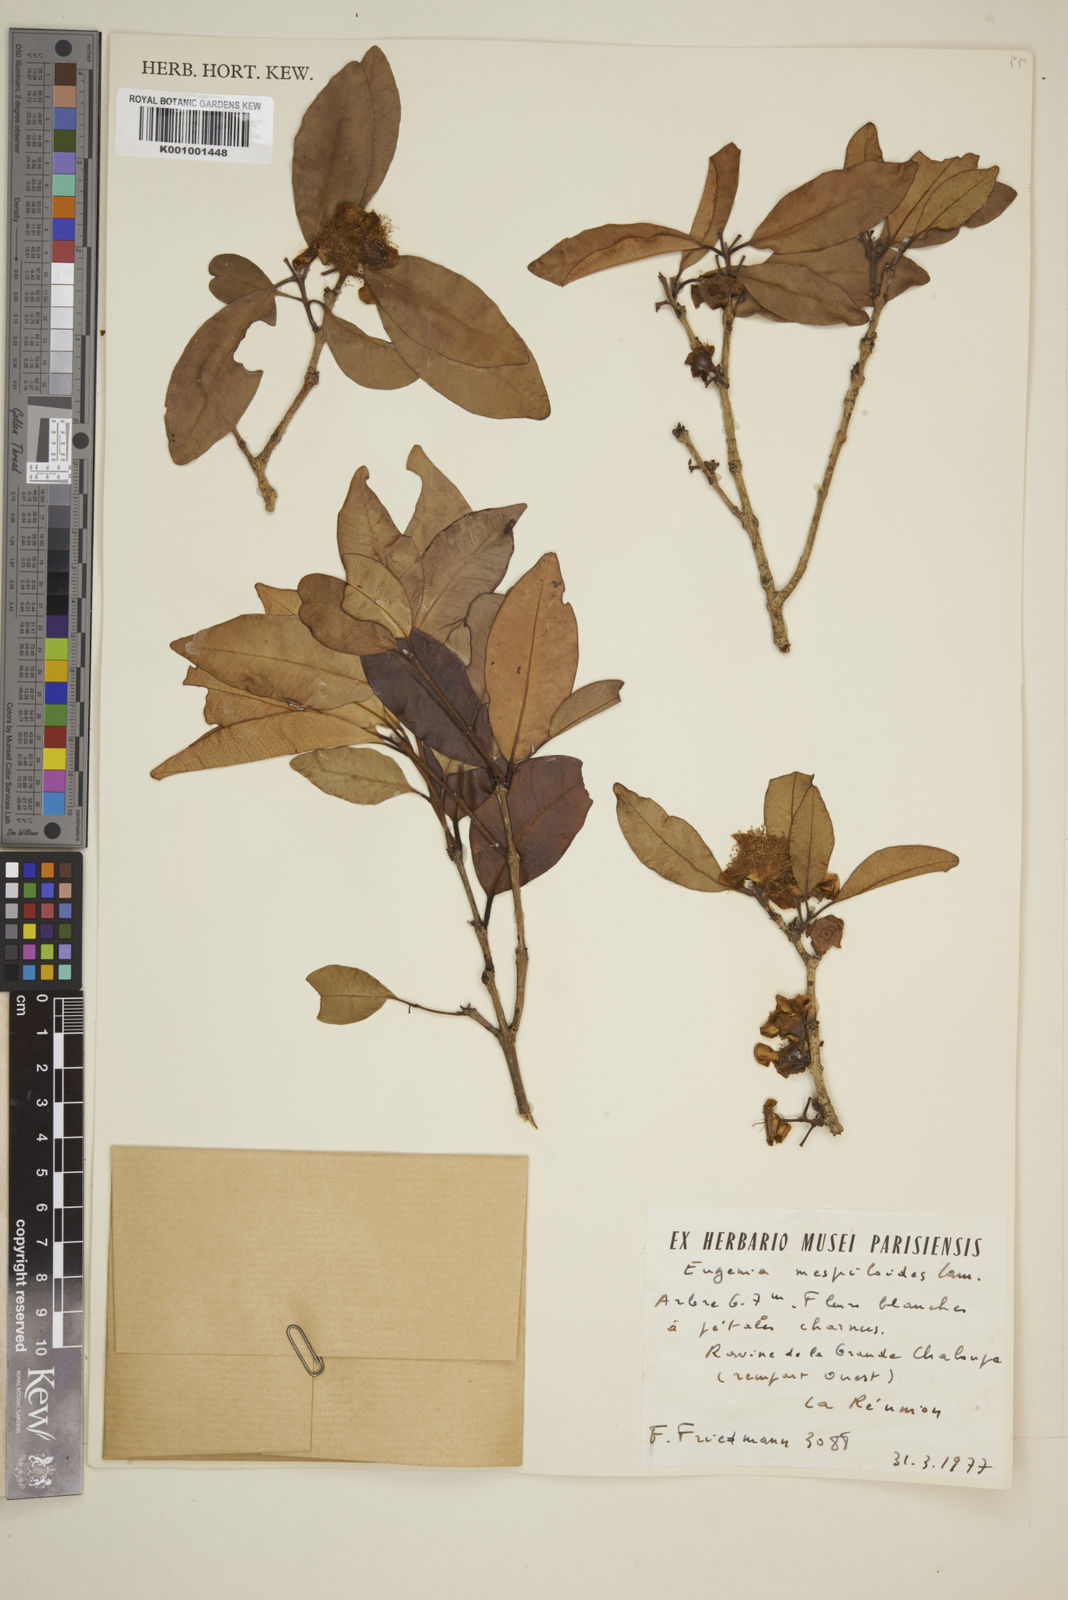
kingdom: Plantae
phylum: Tracheophyta
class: Magnoliopsida
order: Myrtales
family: Myrtaceae
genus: Eugenia
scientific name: Eugenia mespiloides
